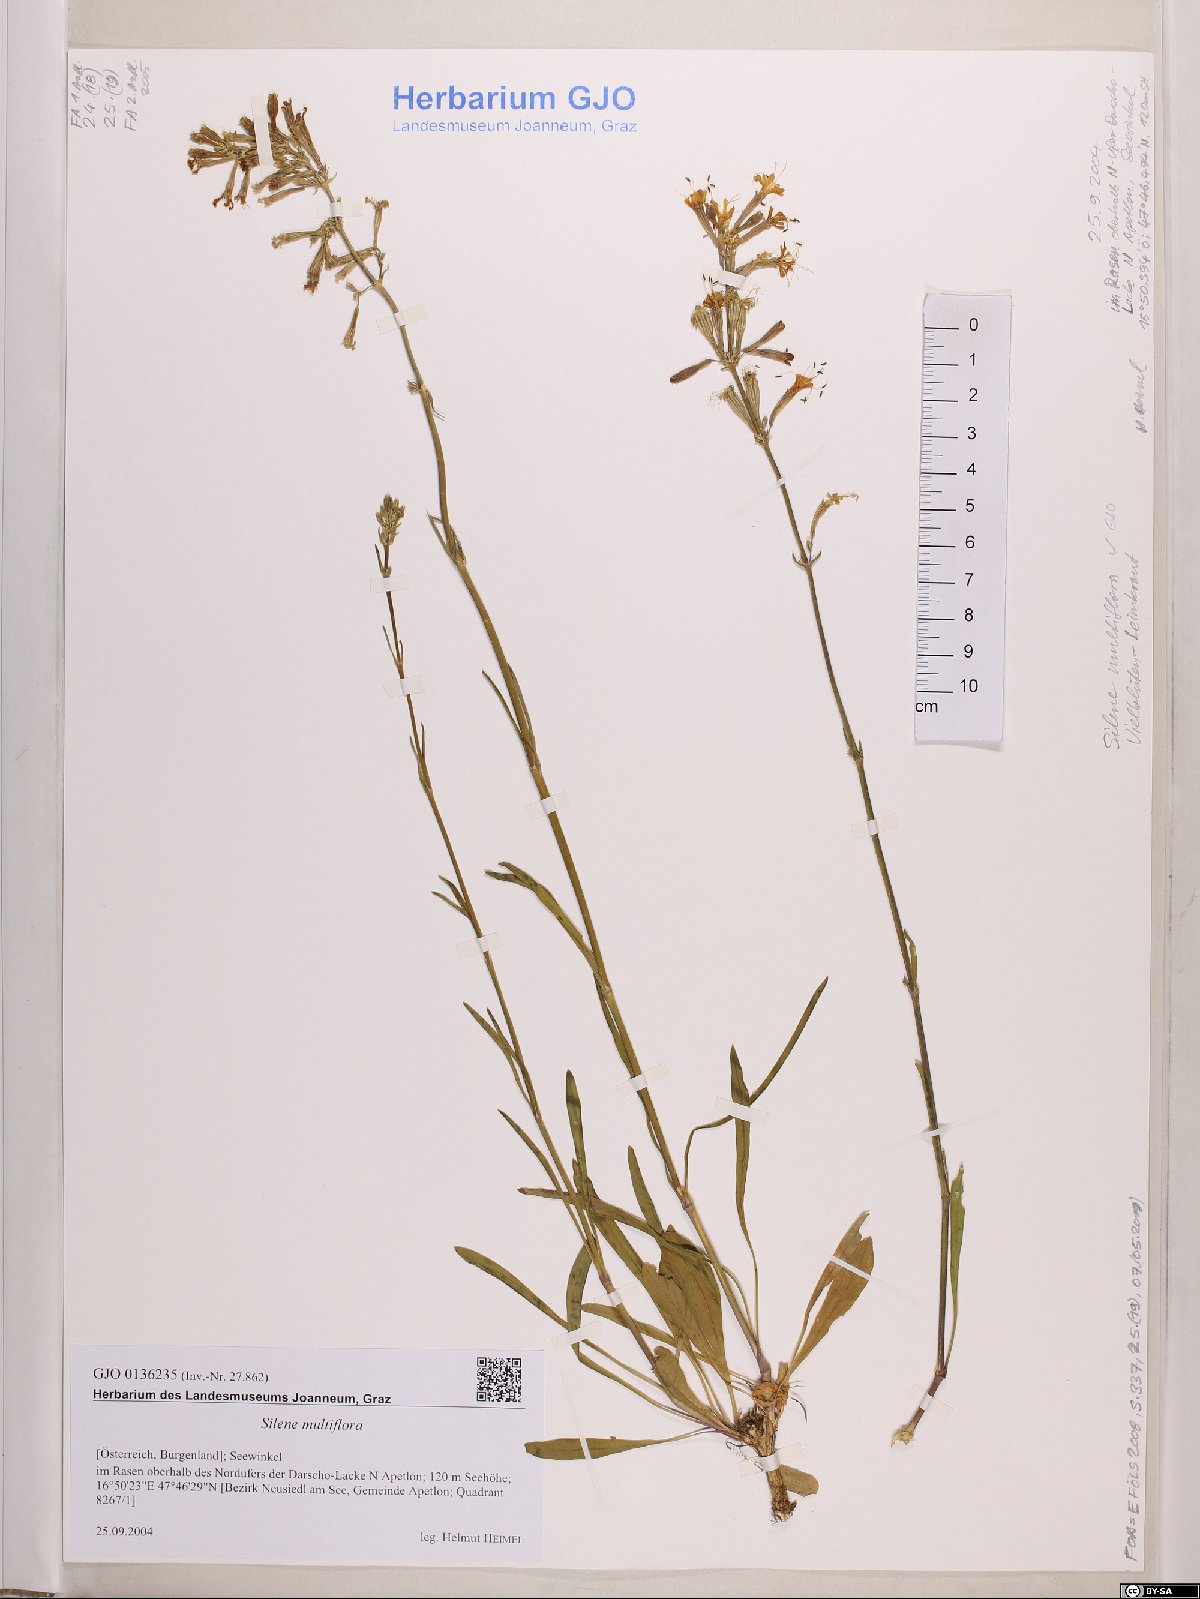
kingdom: Plantae
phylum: Tracheophyta
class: Magnoliopsida
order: Caryophyllales
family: Caryophyllaceae
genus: Silene
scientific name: Silene multiflora
